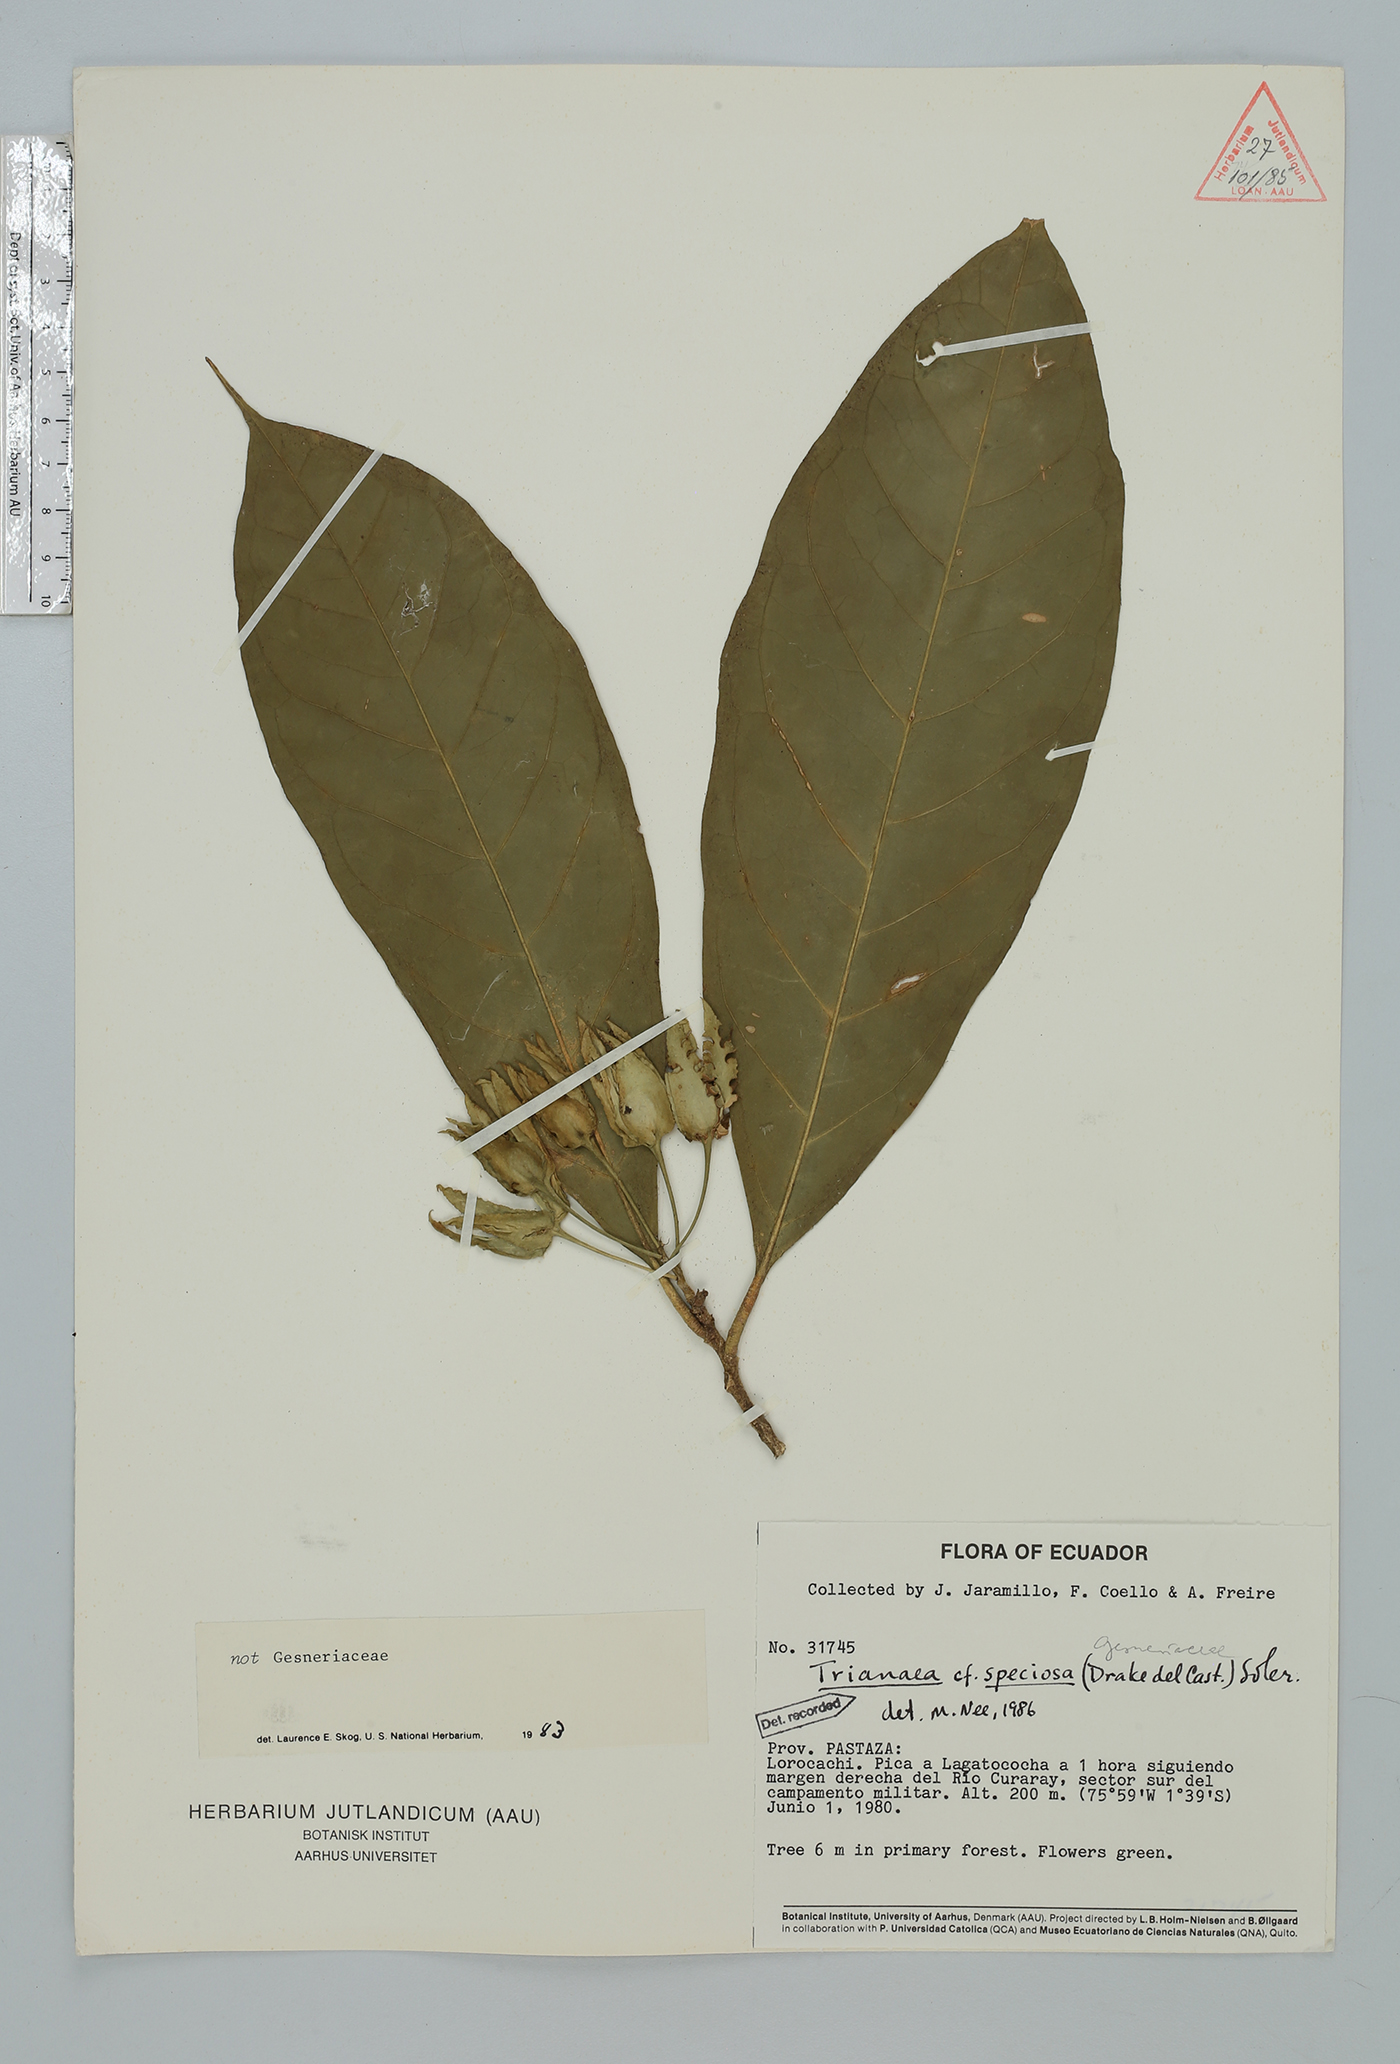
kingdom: Plantae
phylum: Tracheophyta
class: Magnoliopsida
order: Solanales
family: Solanaceae
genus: Markea
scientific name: Markea harlingiana
